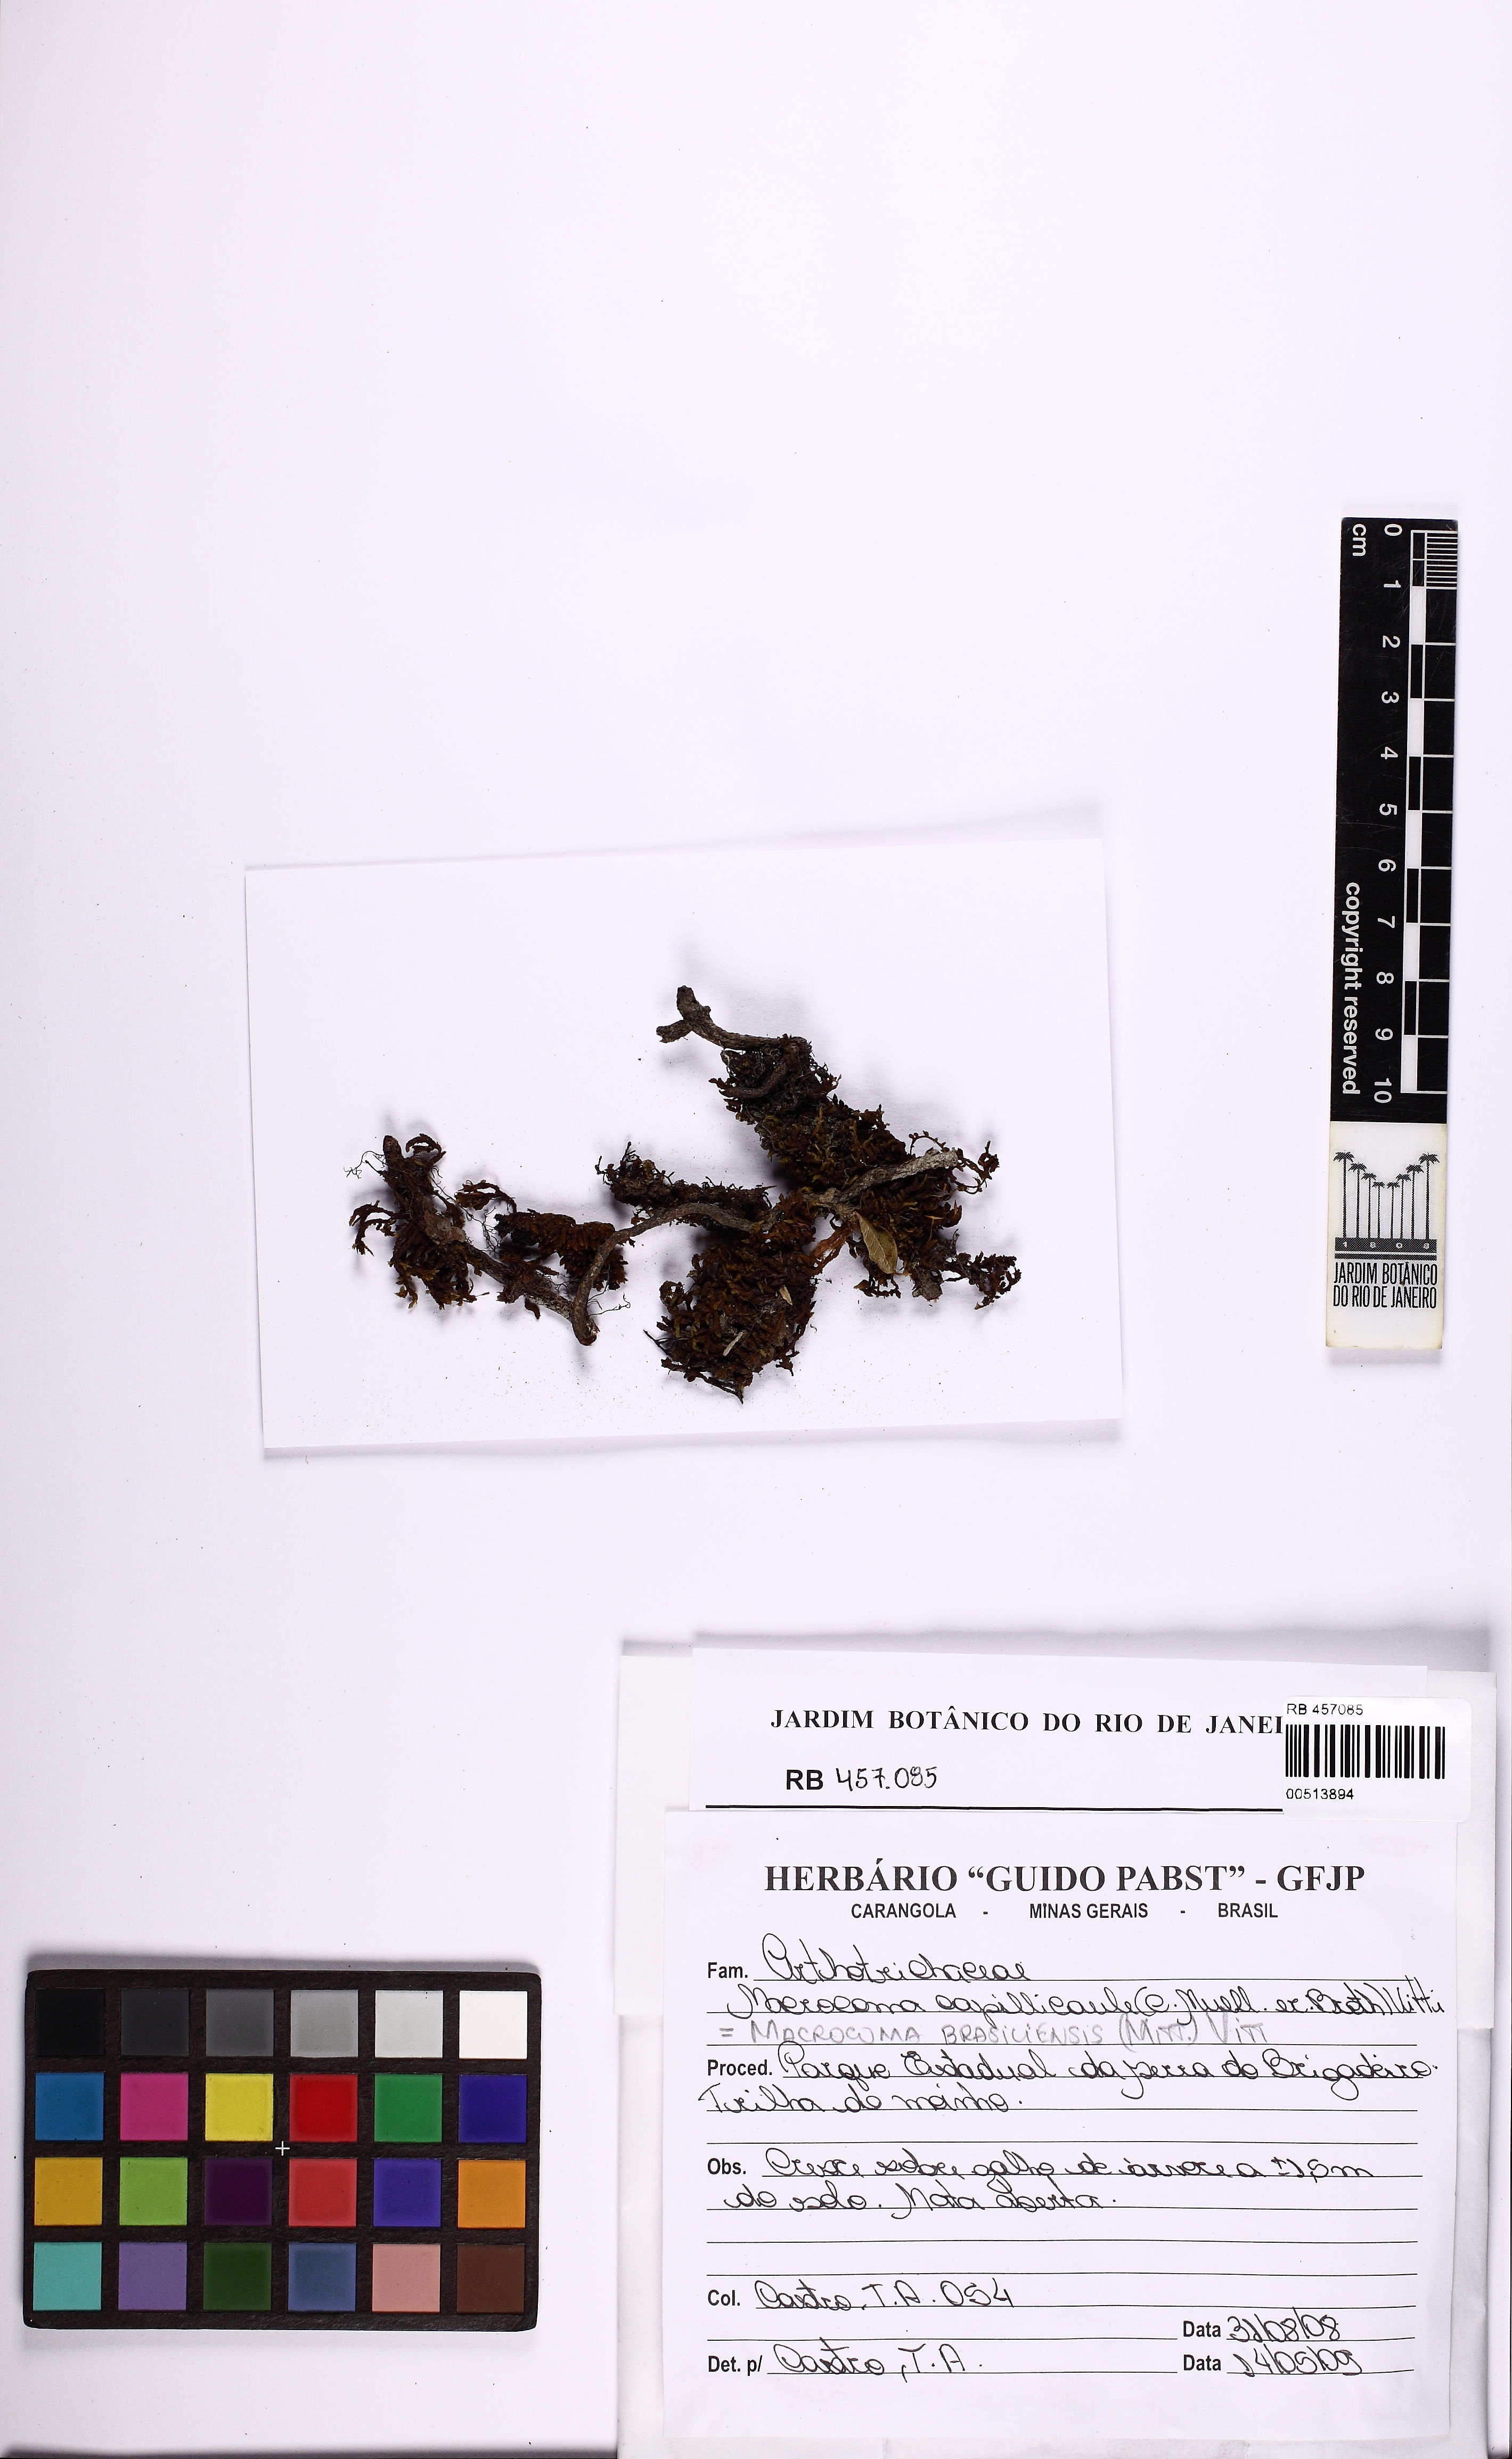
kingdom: Plantae
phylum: Bryophyta
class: Bryopsida
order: Orthotrichales
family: Orthotrichaceae
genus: Macrocoma
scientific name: Macrocoma brasiliensis
